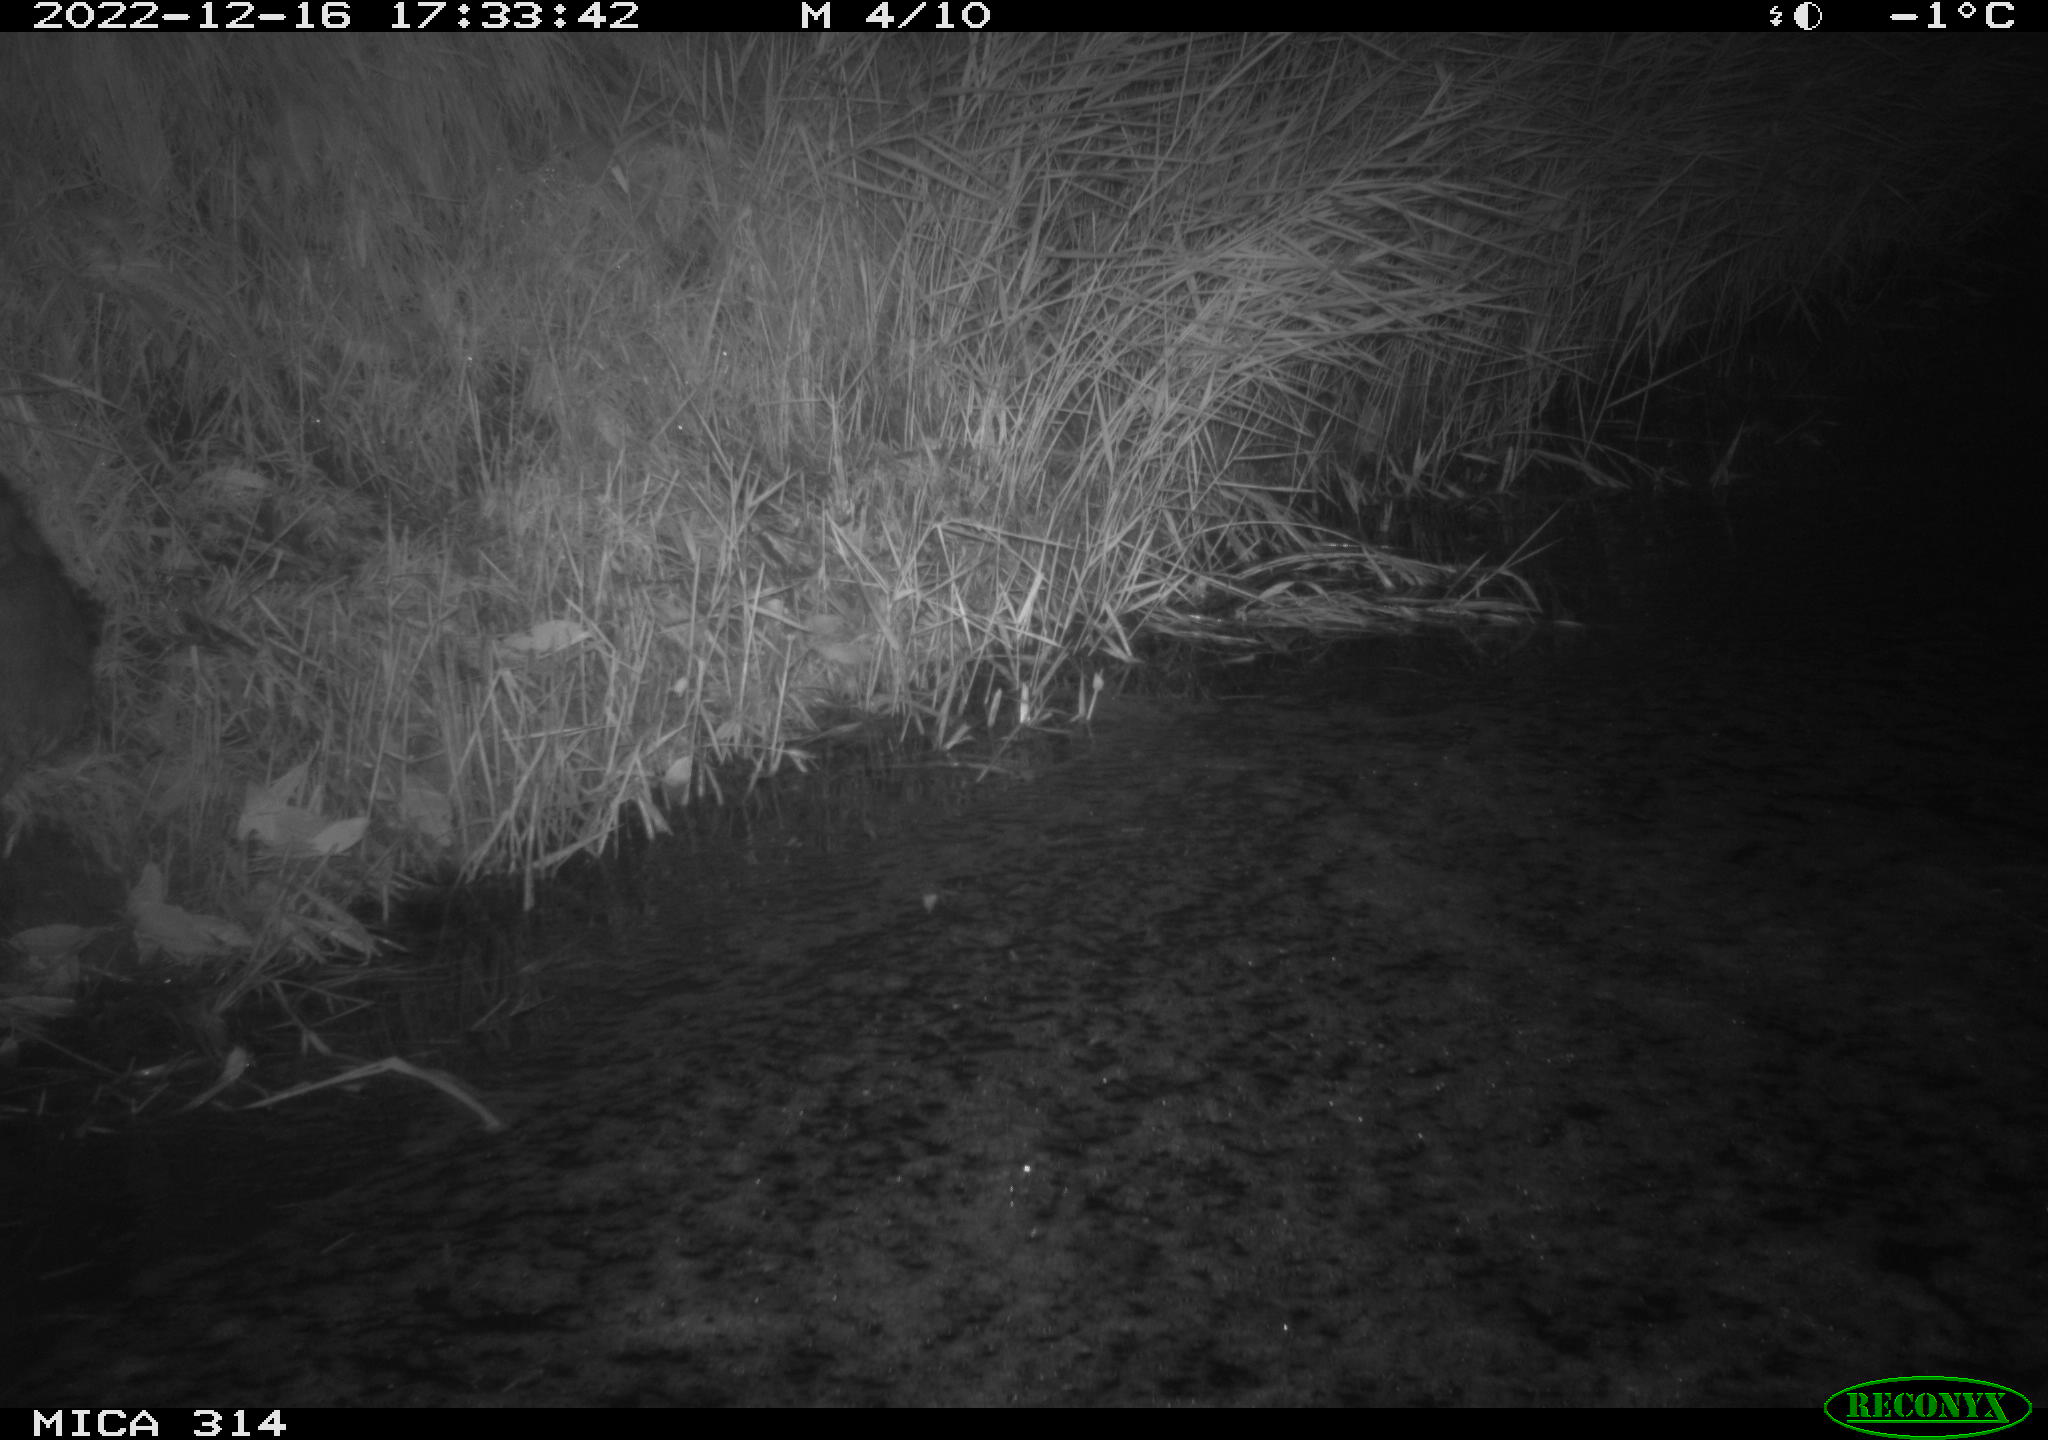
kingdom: Animalia
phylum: Chordata
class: Mammalia
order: Rodentia
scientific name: Rodentia
